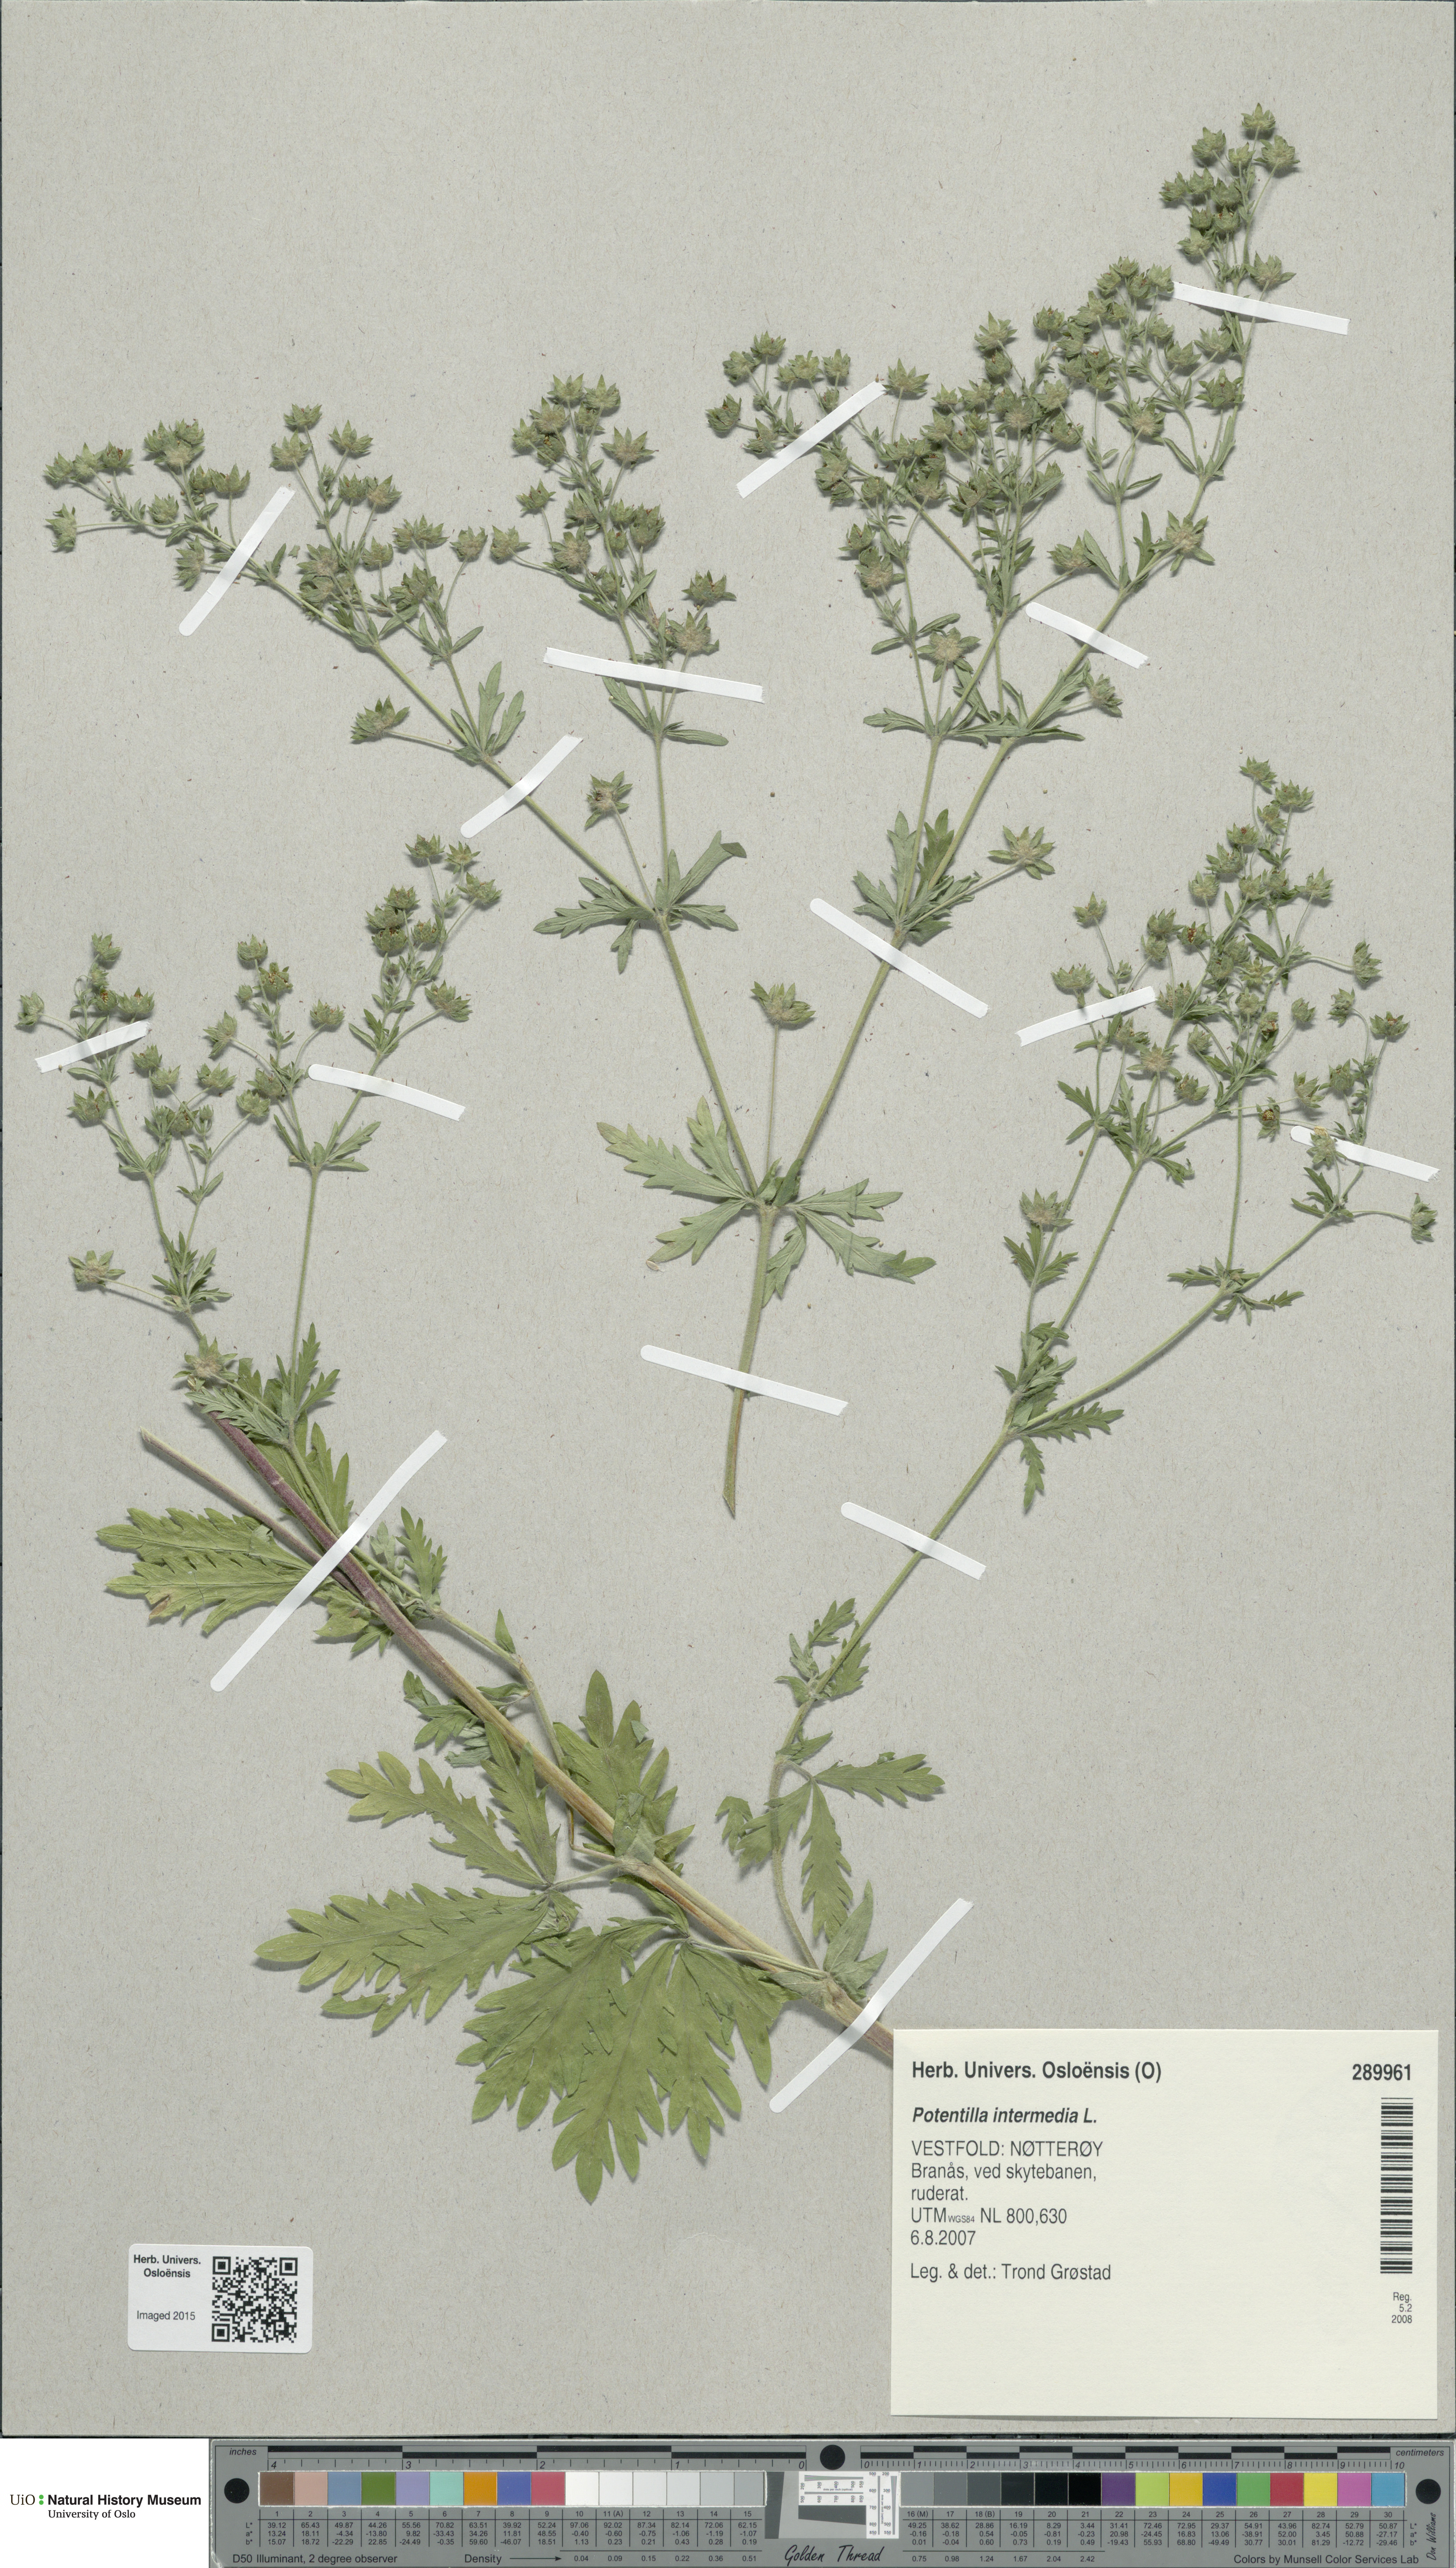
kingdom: Plantae
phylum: Tracheophyta
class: Magnoliopsida
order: Rosales
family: Rosaceae
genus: Potentilla
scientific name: Potentilla intermedia
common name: Downy cinquefoil
